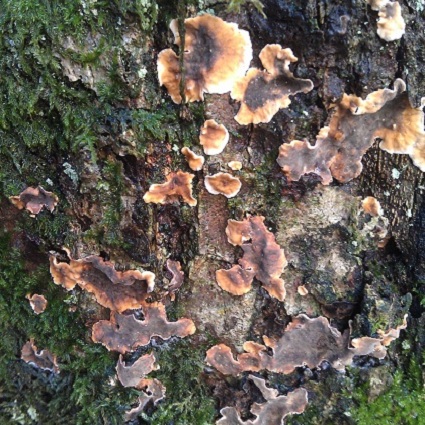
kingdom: Fungi
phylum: Basidiomycota
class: Agaricomycetes
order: Russulales
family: Stereaceae
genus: Stereum
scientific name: Stereum gausapatum
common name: tynd lædersvamp
